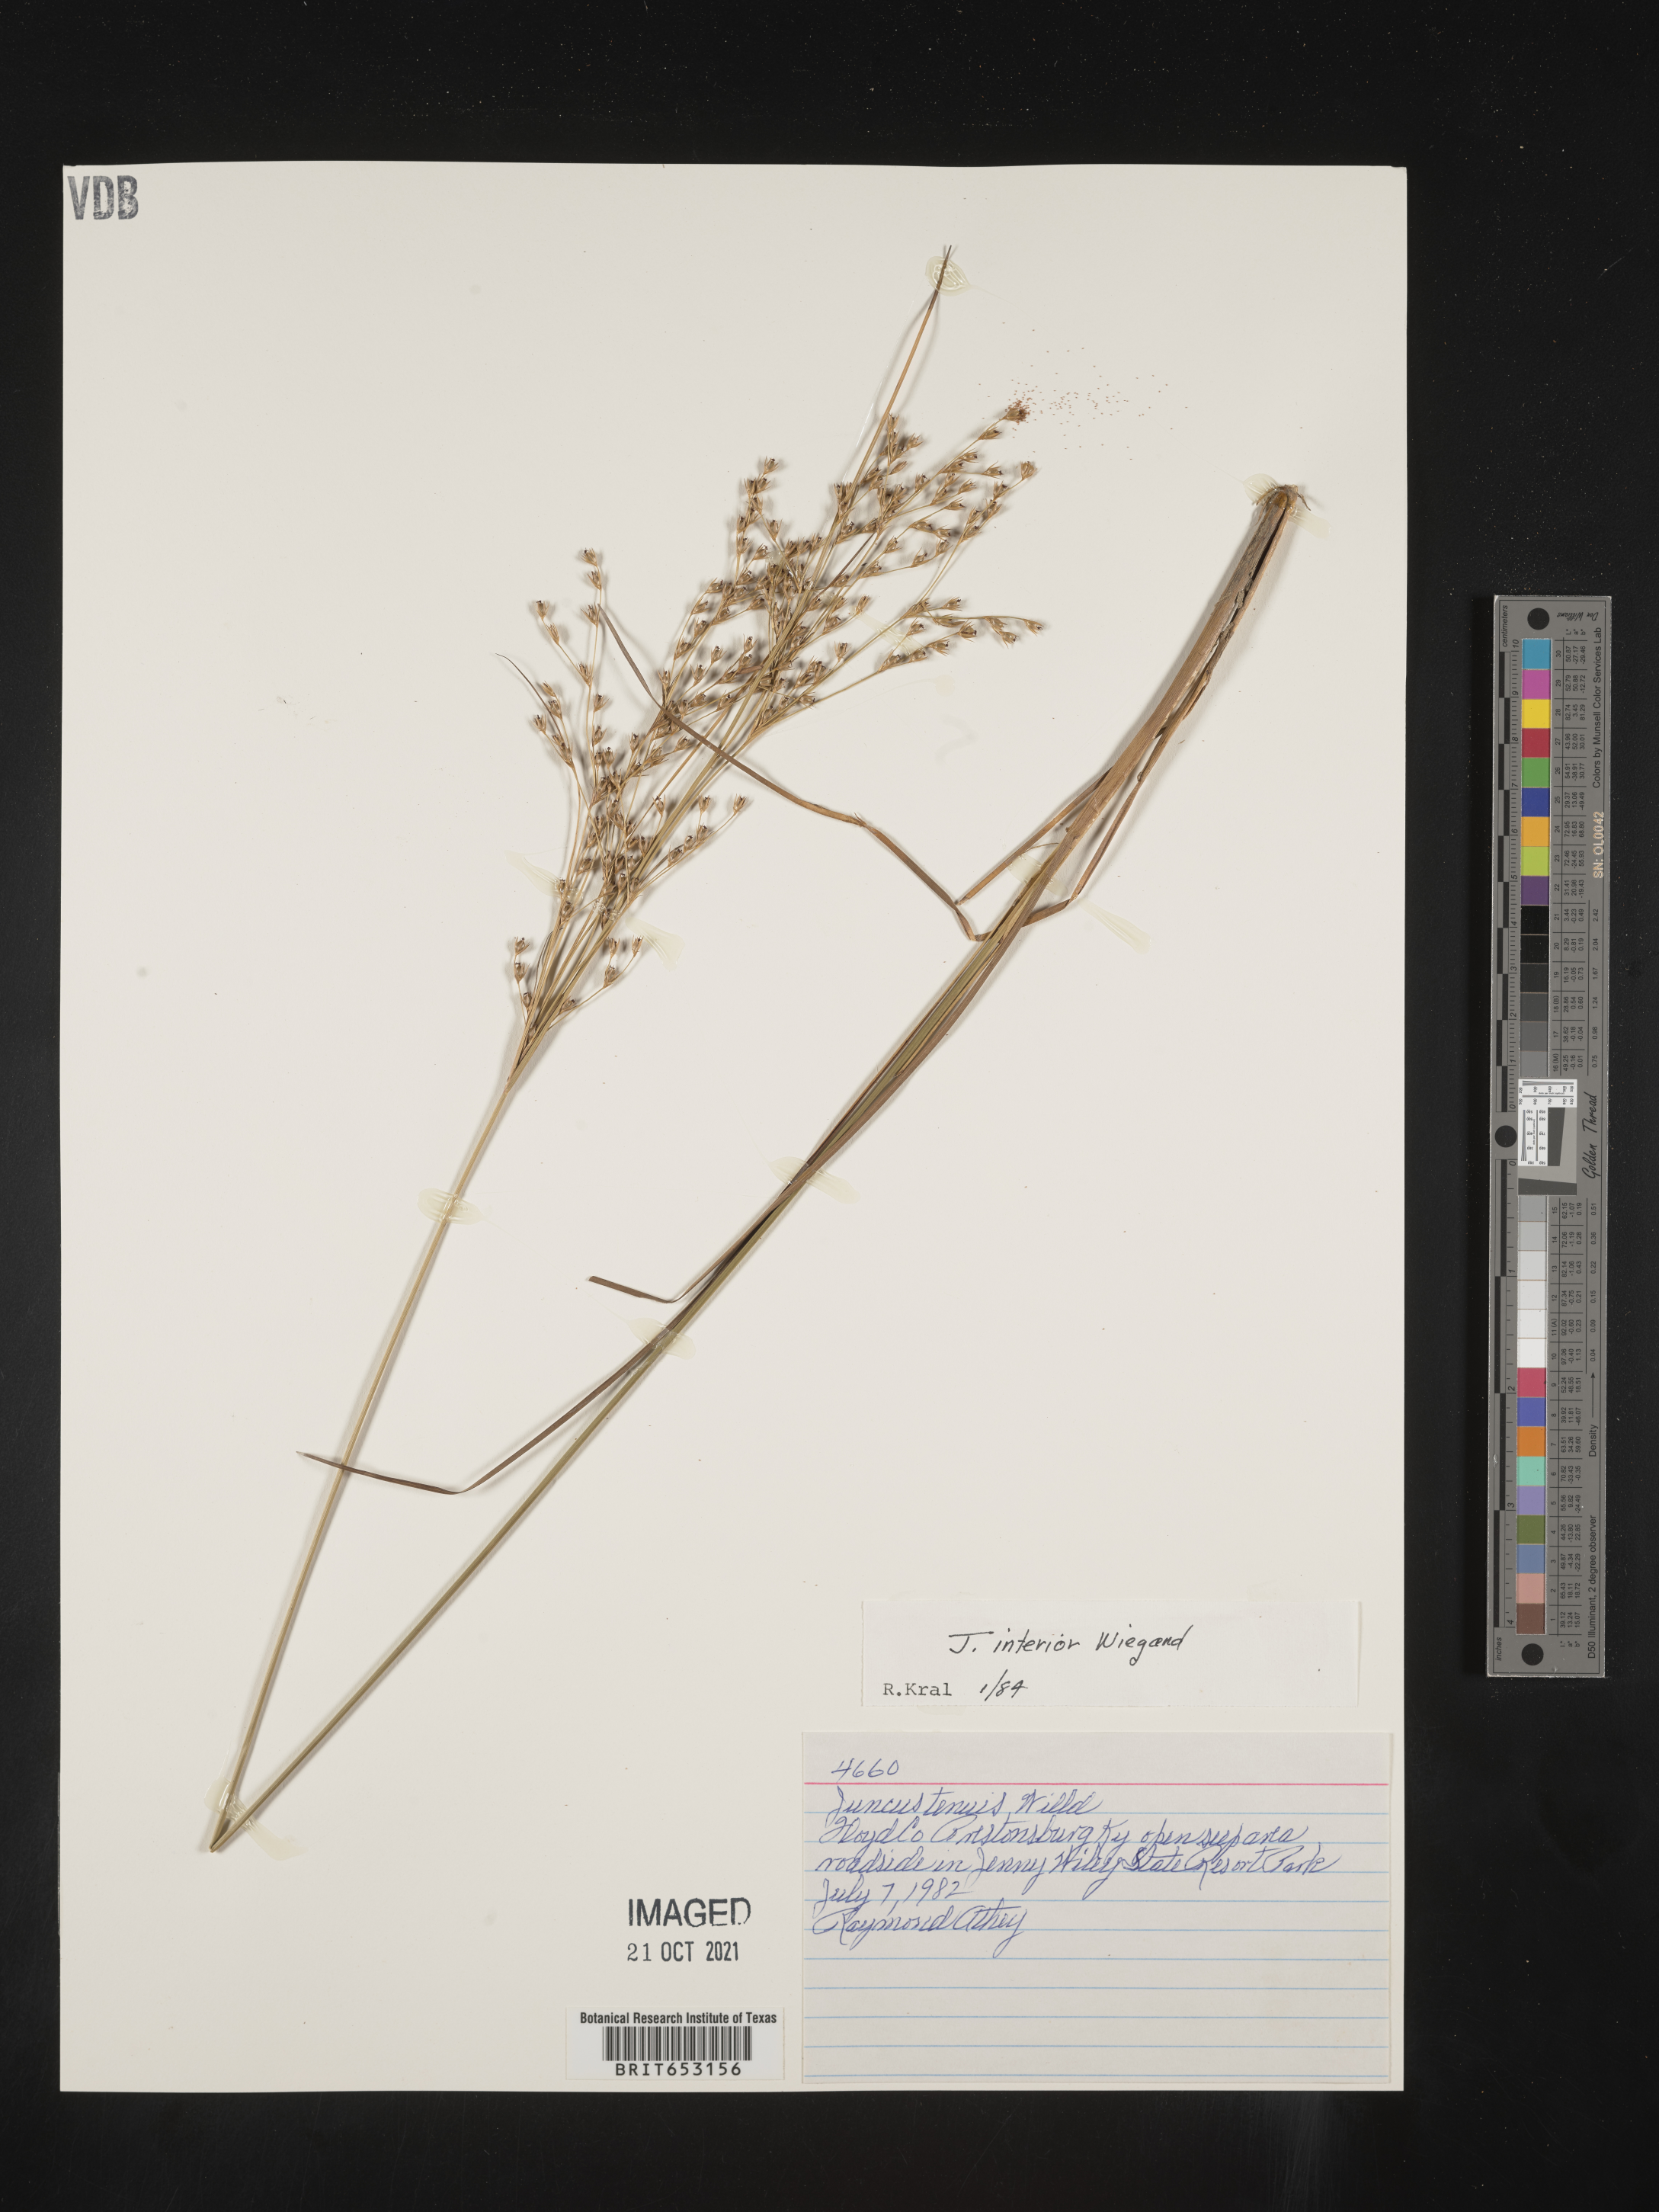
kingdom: Plantae
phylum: Tracheophyta
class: Liliopsida
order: Poales
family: Juncaceae
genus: Juncus
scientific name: Juncus interior
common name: Interior rush
